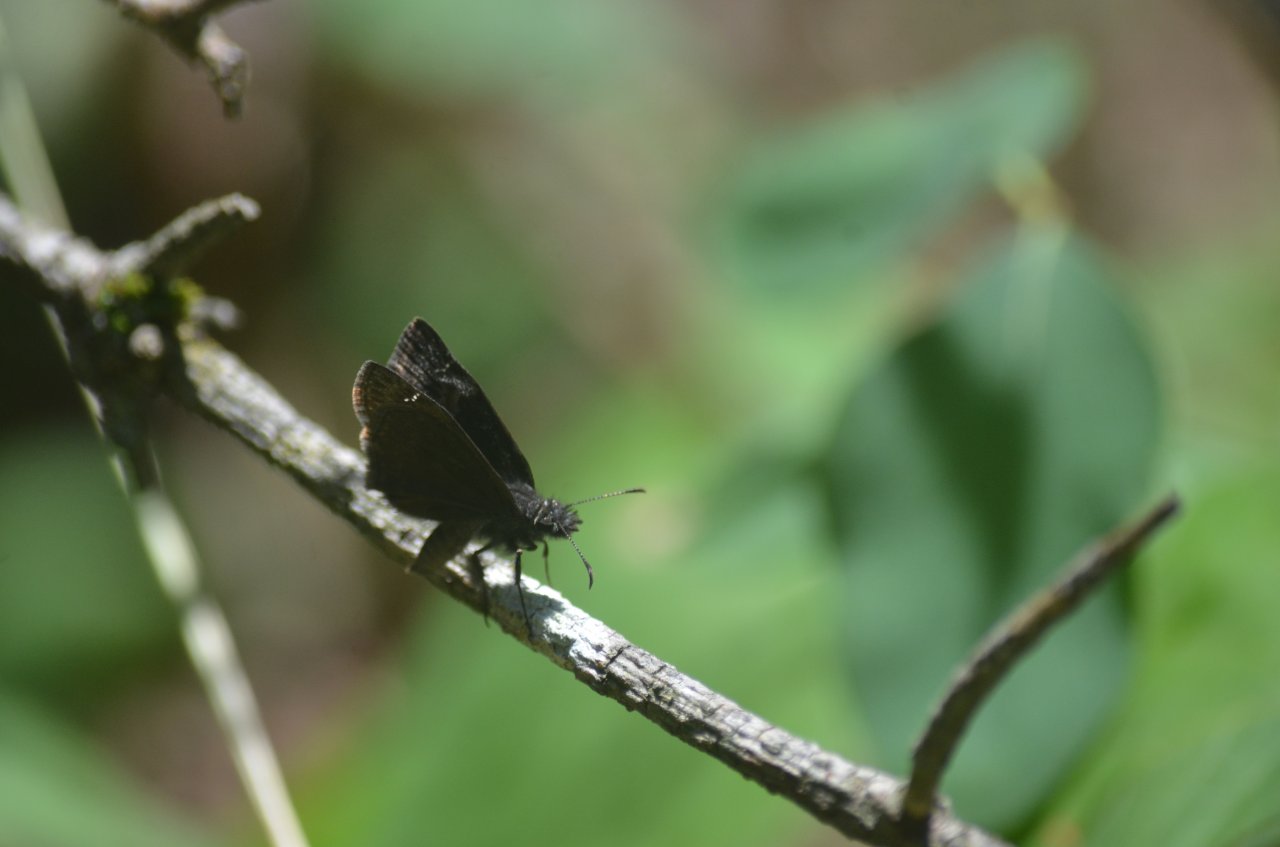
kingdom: Animalia
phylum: Arthropoda
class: Insecta
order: Lepidoptera
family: Hesperiidae
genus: Gesta
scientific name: Gesta
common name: Columbine Duskywing
